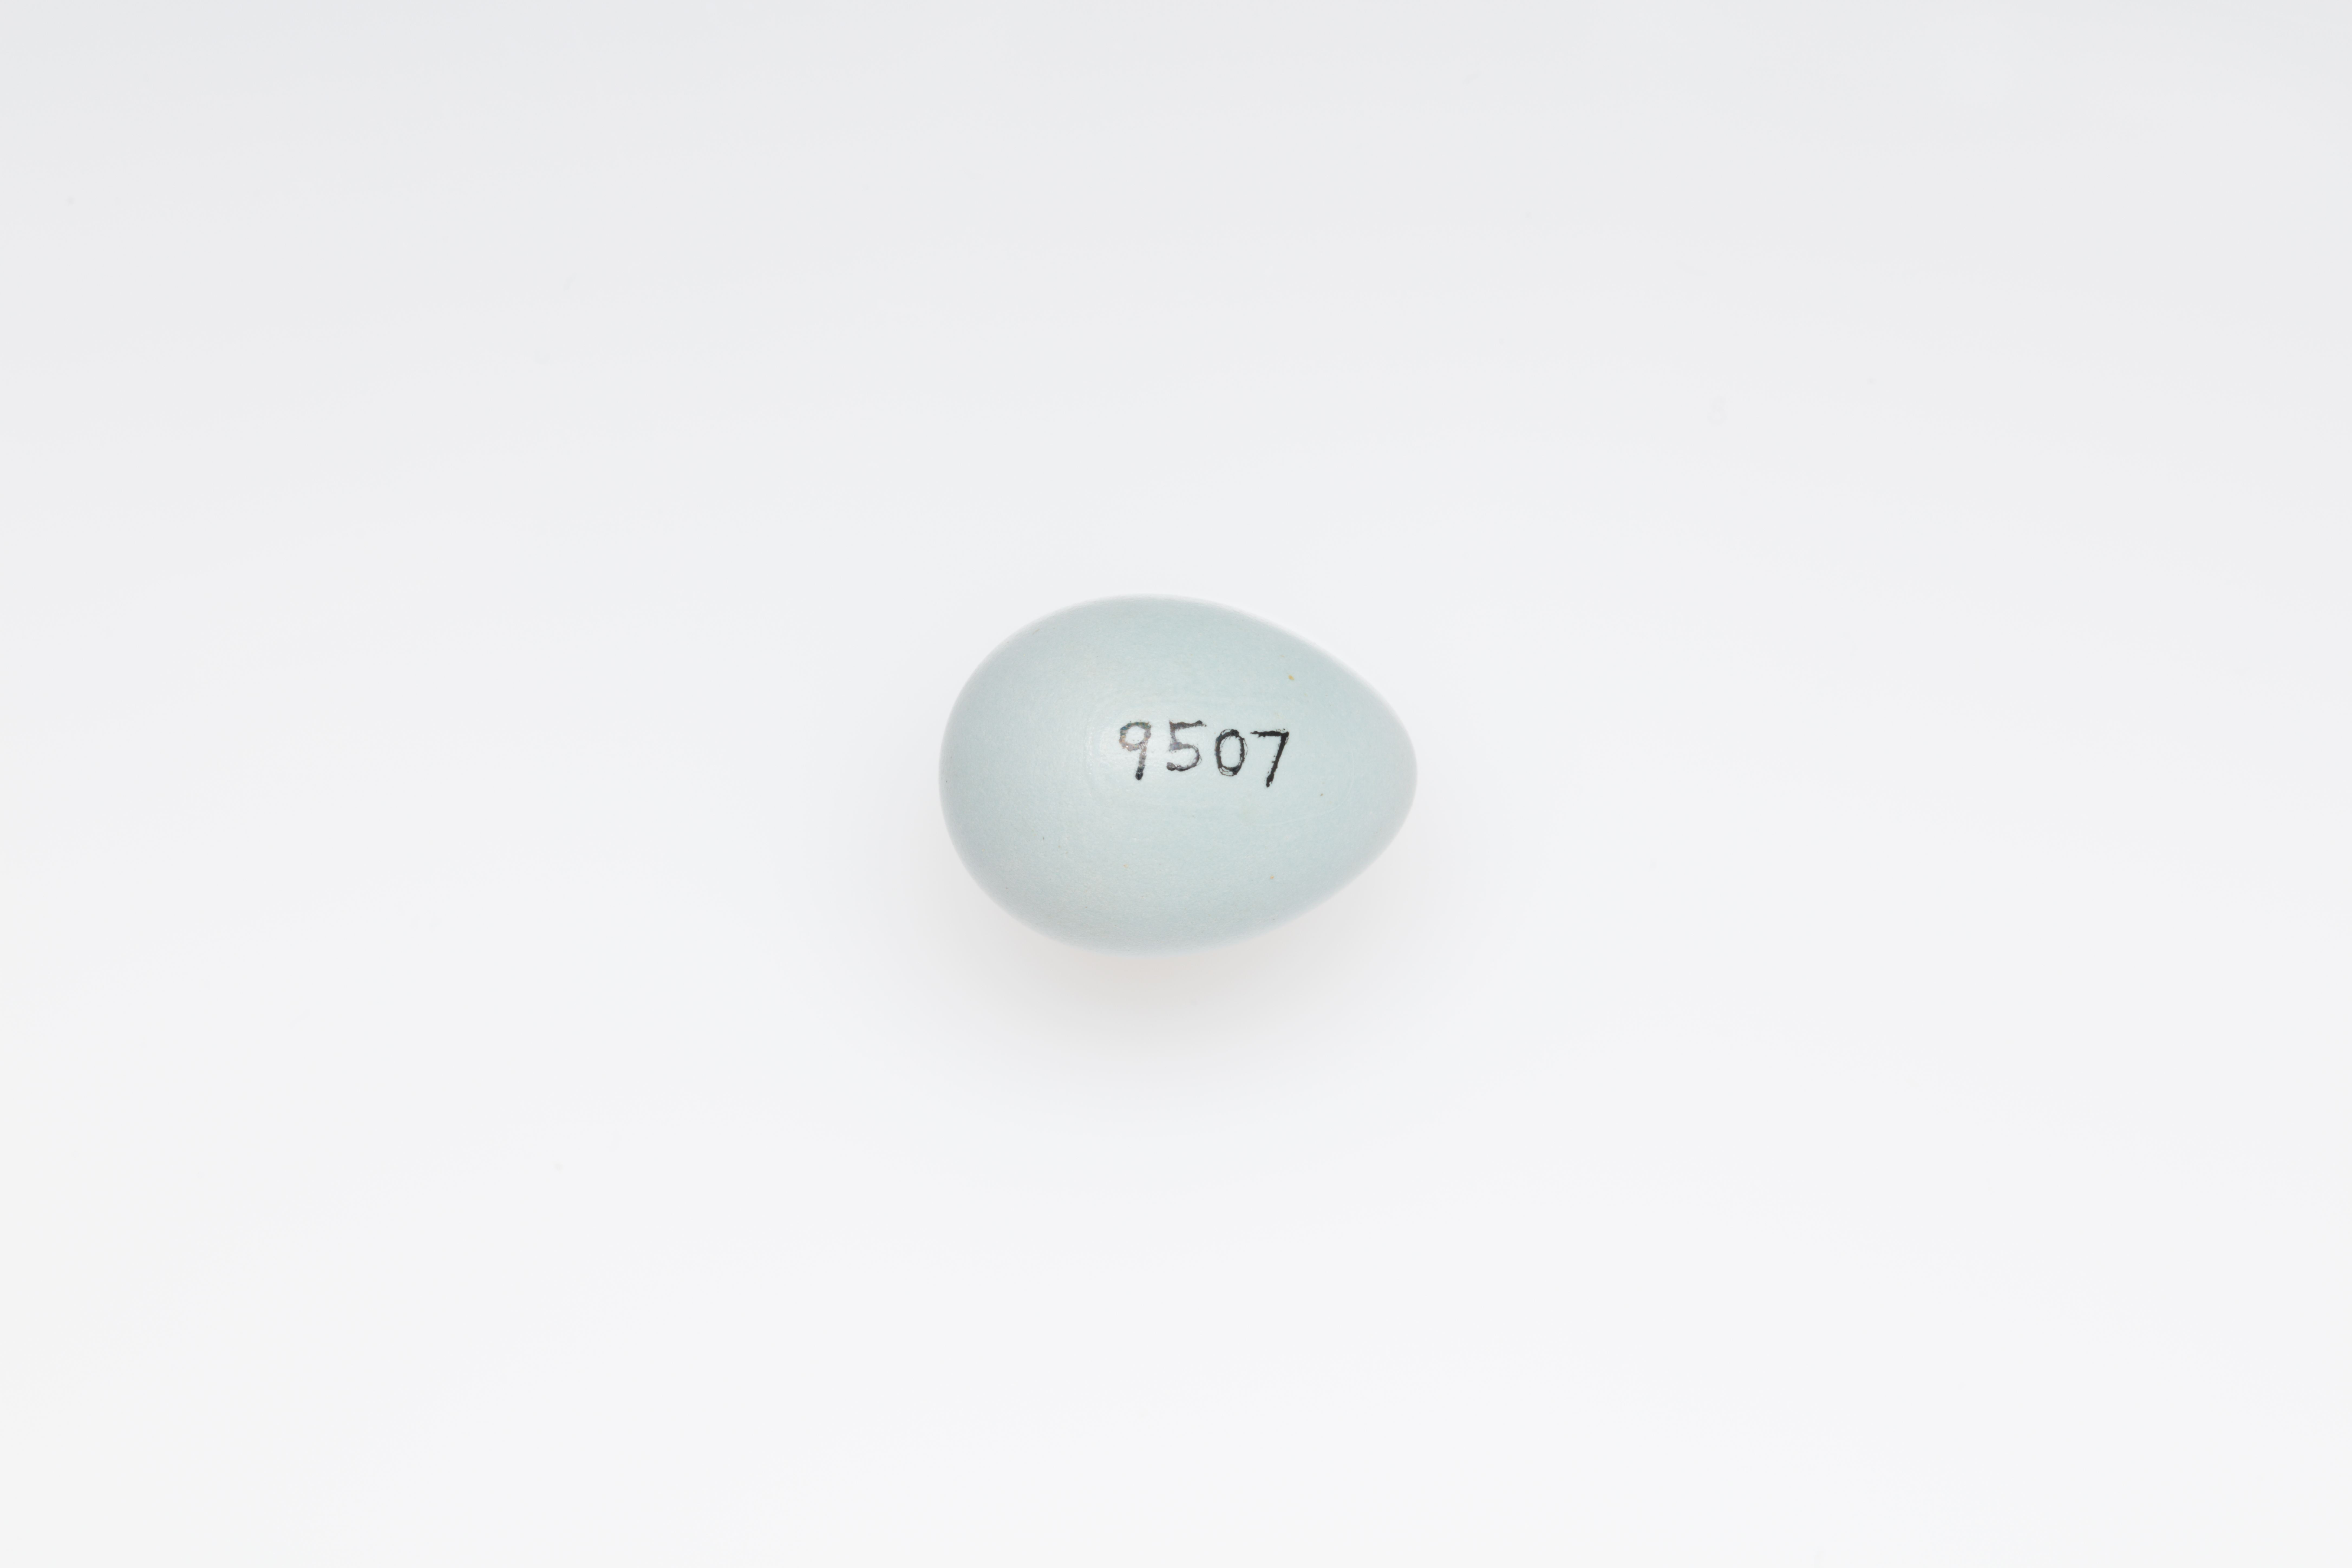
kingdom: Animalia
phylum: Chordata
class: Aves
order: Passeriformes
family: Prunellidae
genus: Prunella
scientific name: Prunella modularis
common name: Dunnock
